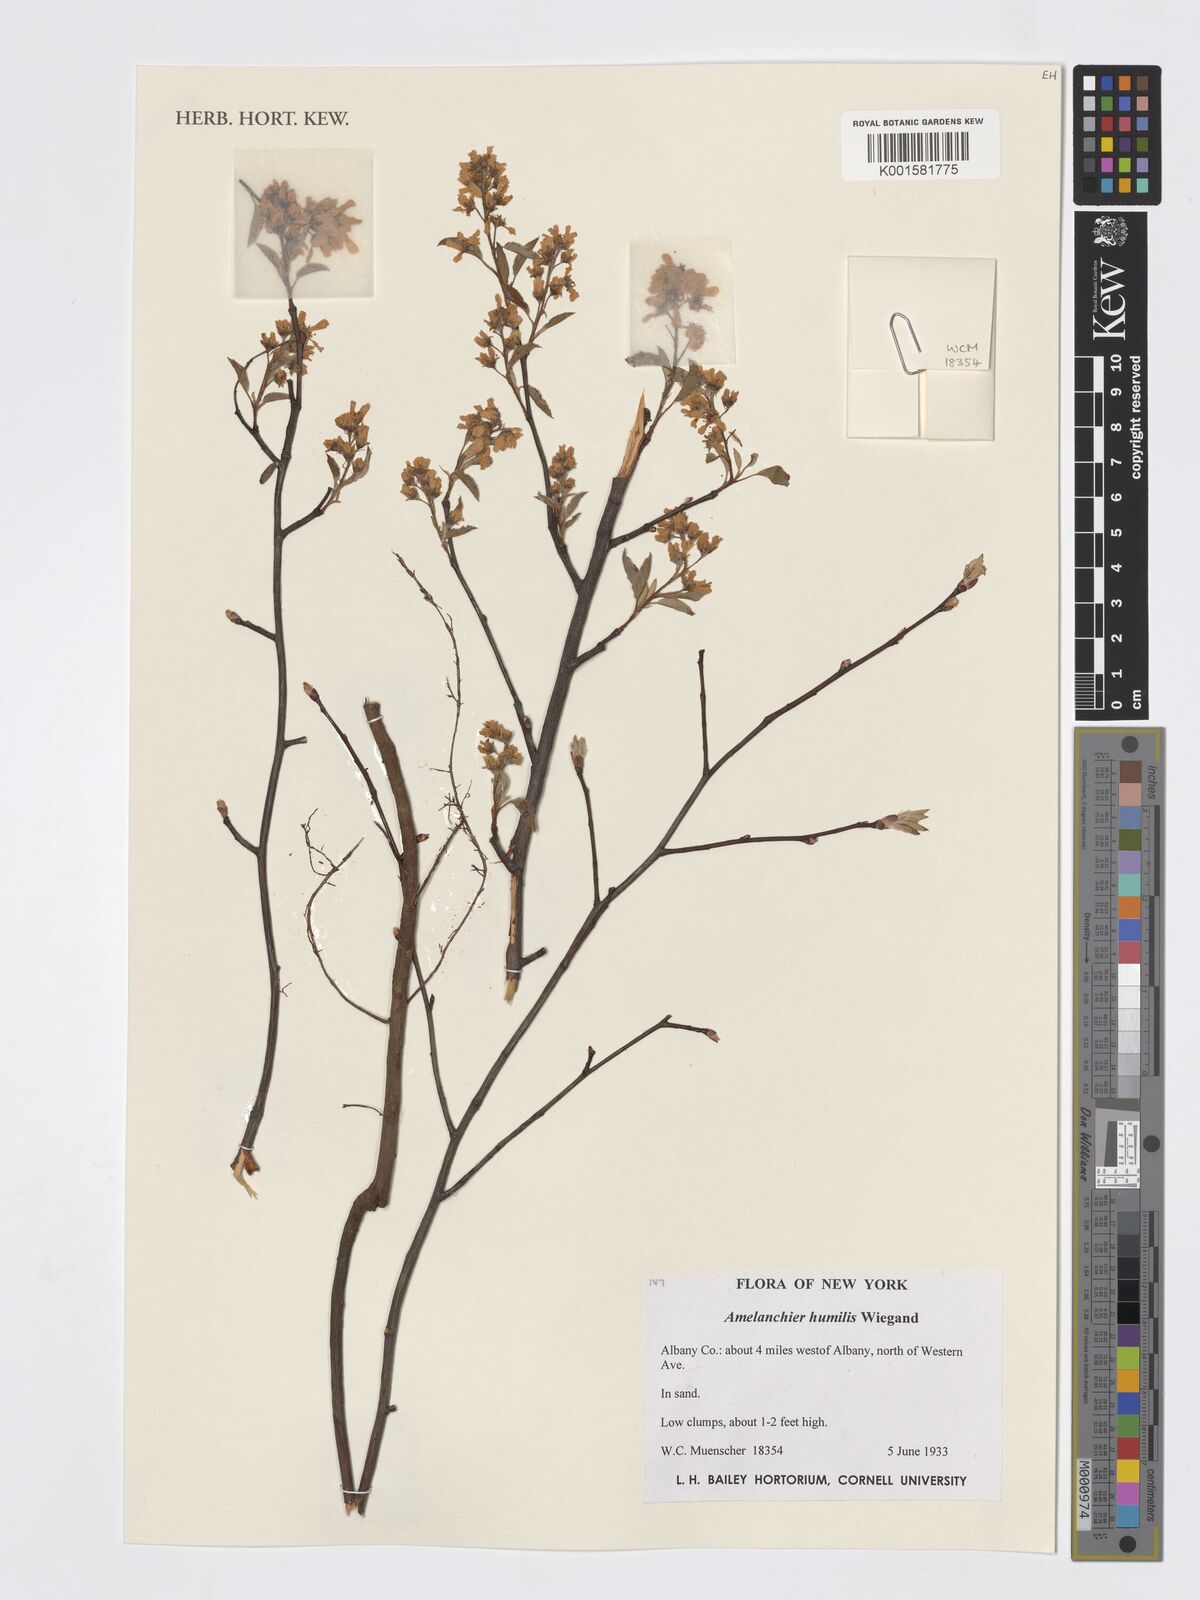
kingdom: Plantae
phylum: Tracheophyta
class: Magnoliopsida
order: Rosales
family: Rosaceae
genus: Amelanchier
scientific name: Amelanchier humilis
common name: Low juneberry
